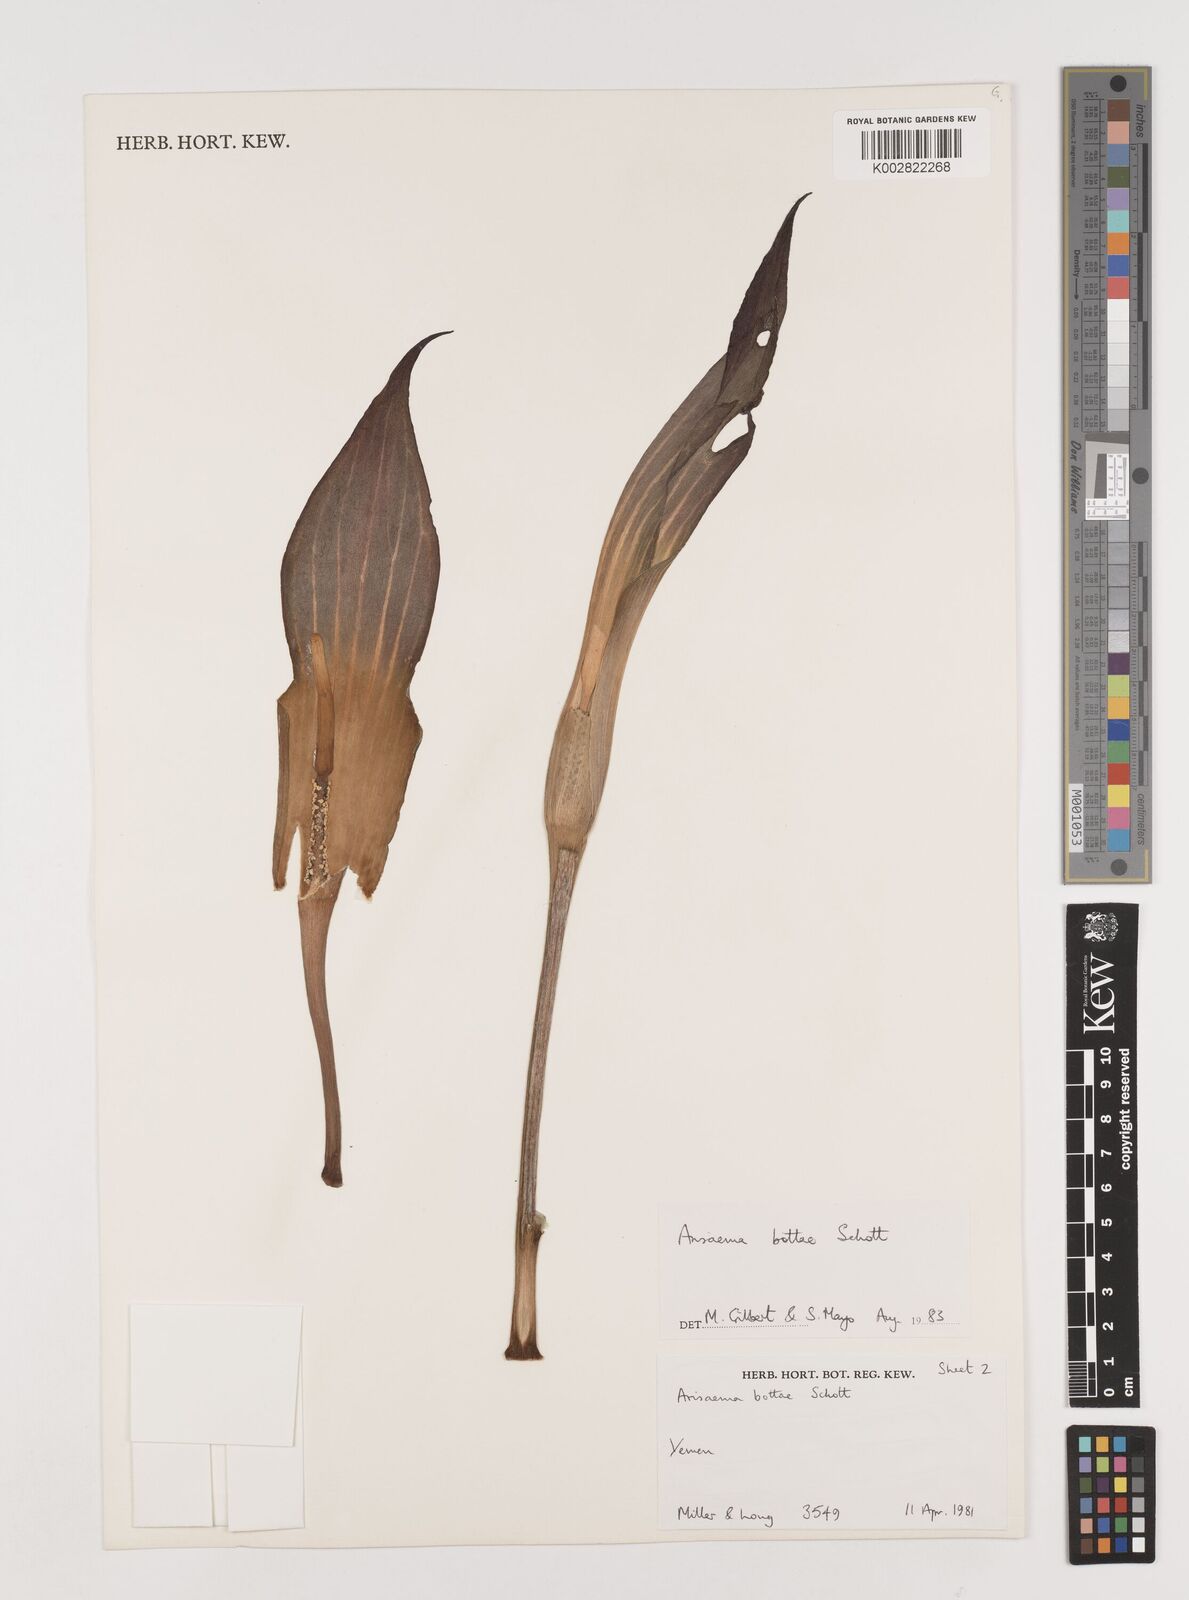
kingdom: Plantae
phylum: Tracheophyta
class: Liliopsida
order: Alismatales
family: Araceae
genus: Arisaema
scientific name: Arisaema bottae
